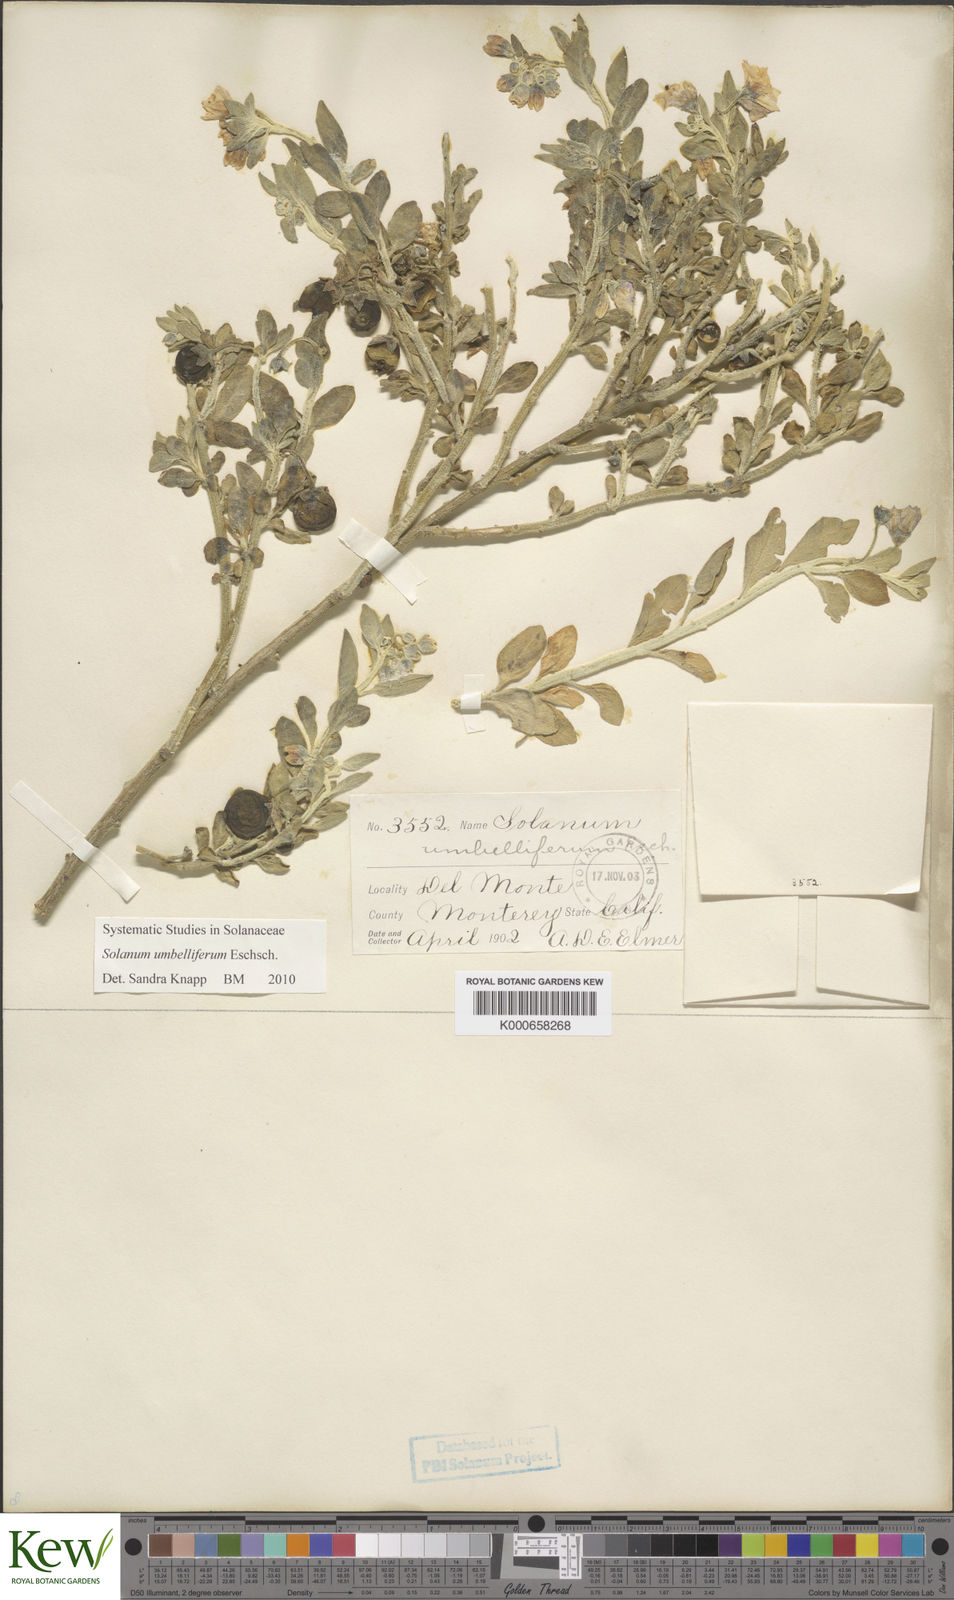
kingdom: Plantae
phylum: Tracheophyta
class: Magnoliopsida
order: Solanales
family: Solanaceae
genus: Solanum
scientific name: Solanum umbelliferum
